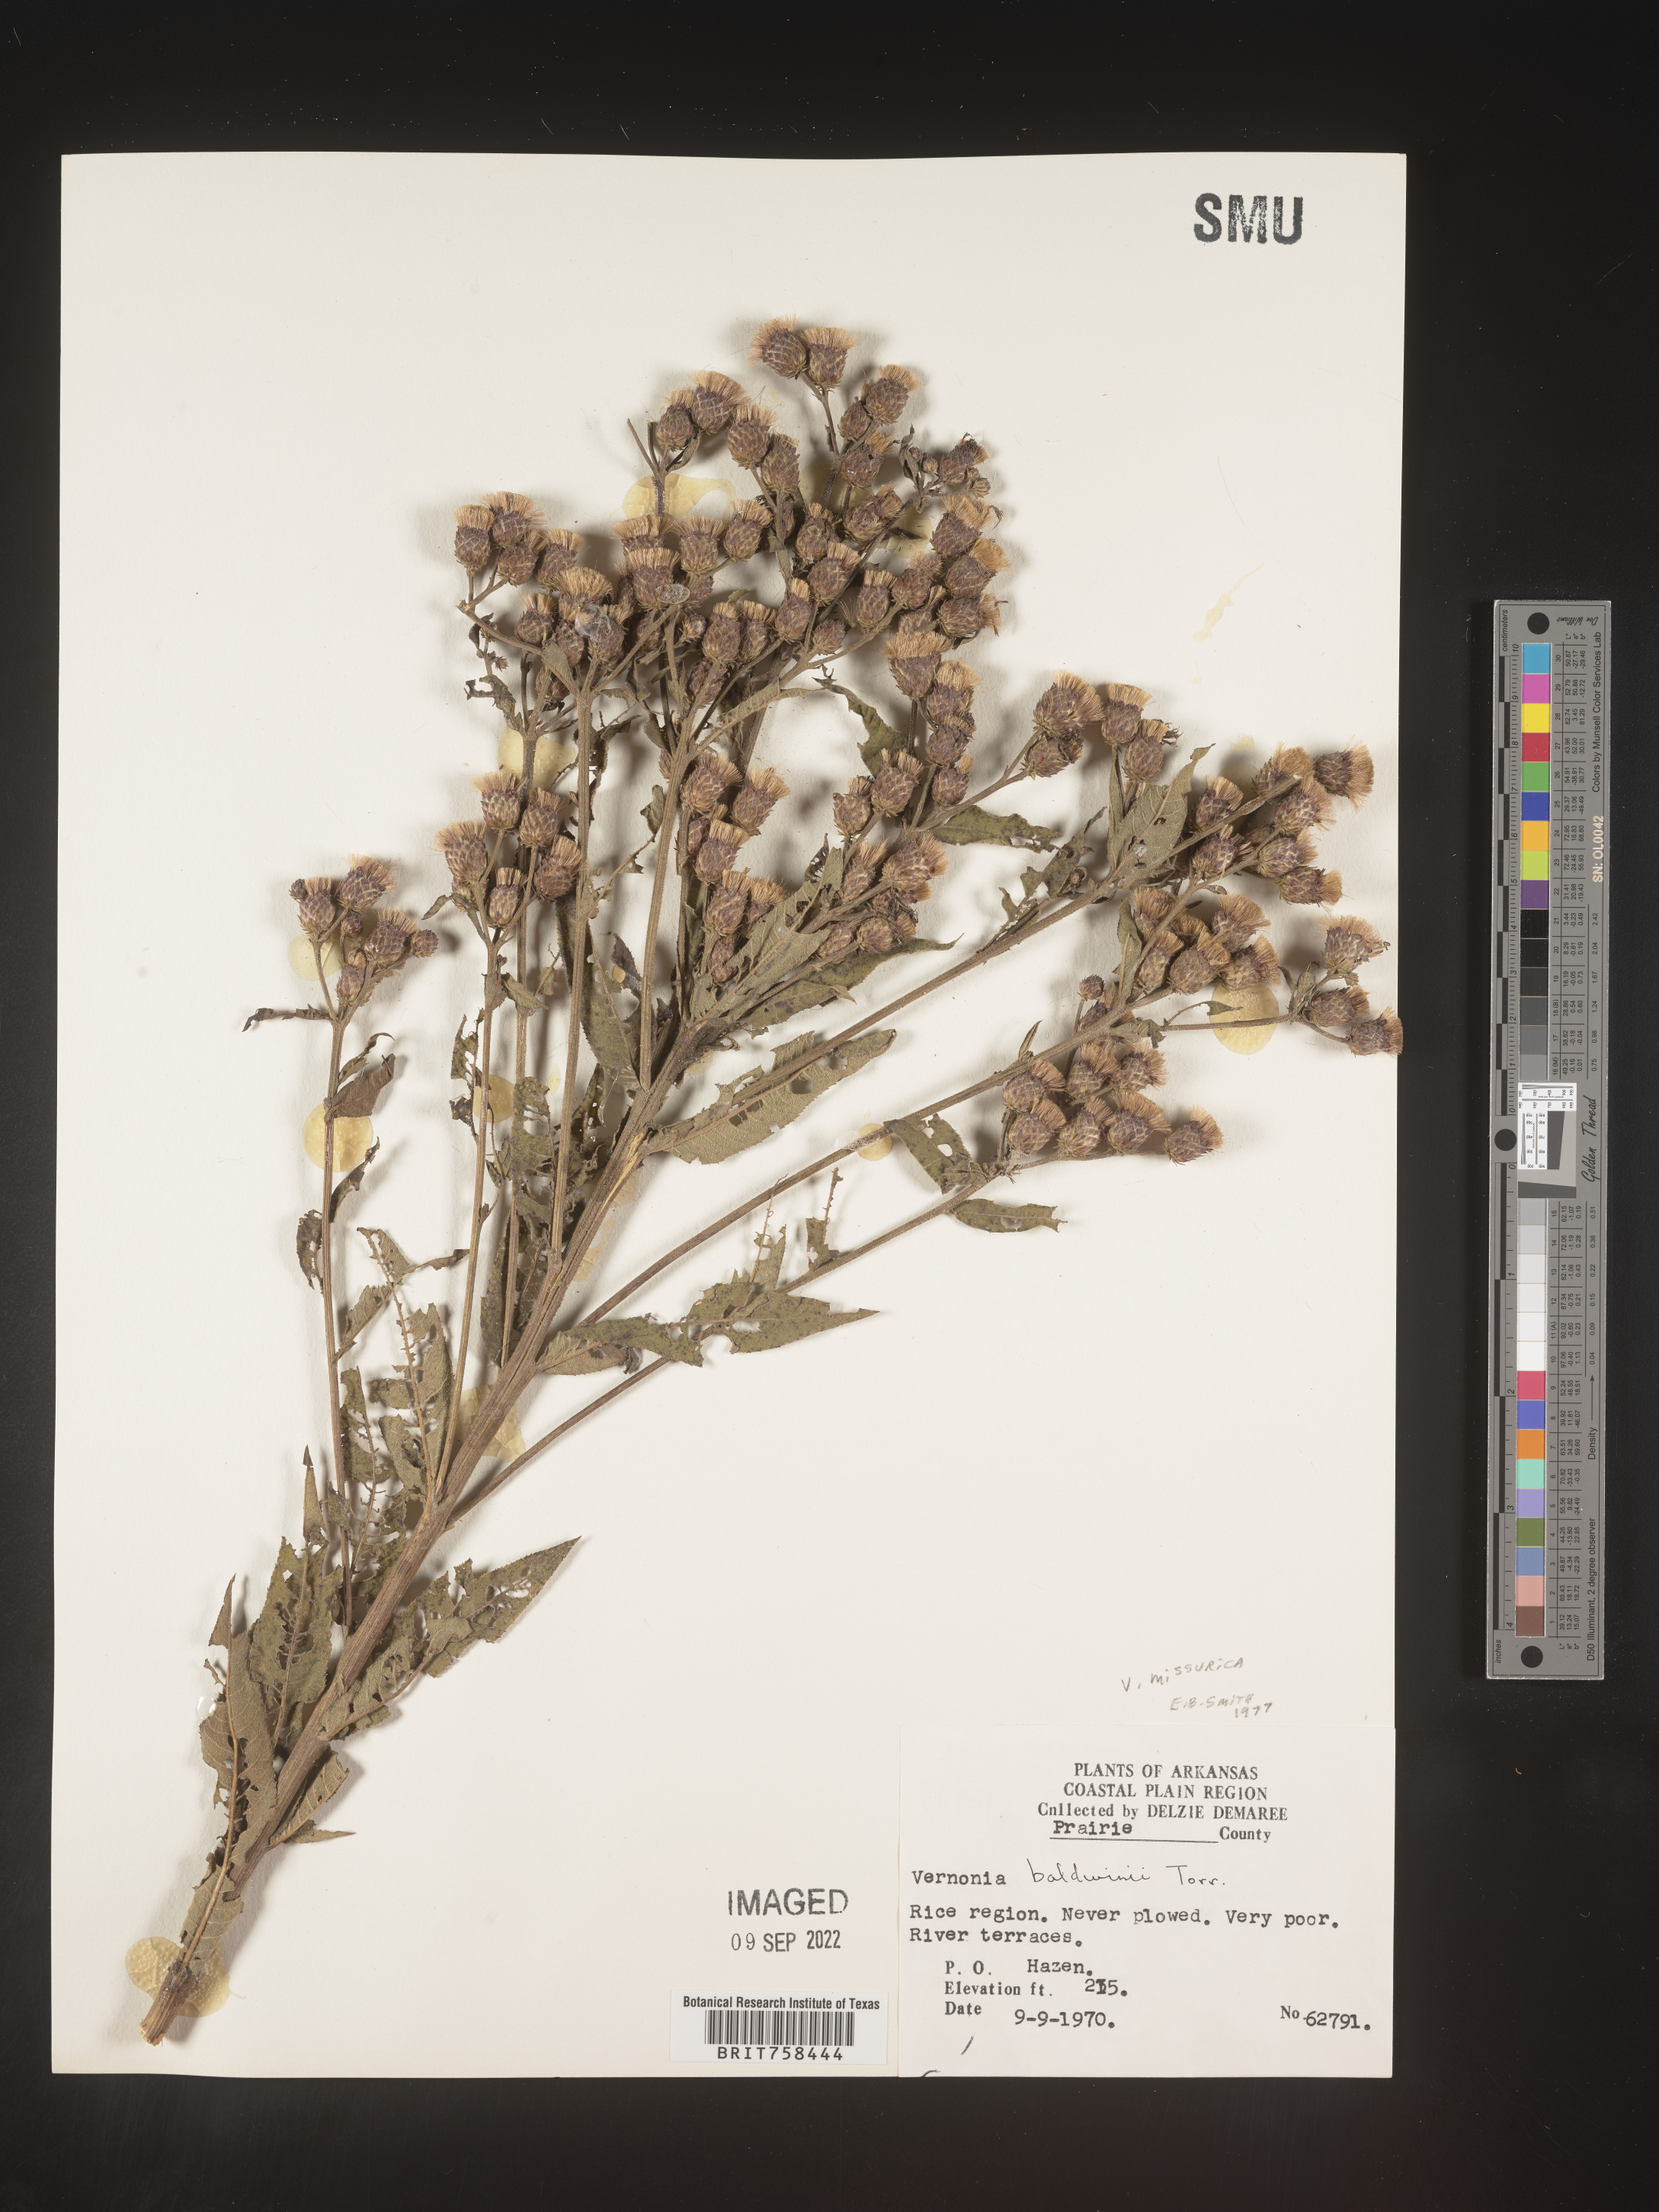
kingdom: Plantae
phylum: Tracheophyta
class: Magnoliopsida
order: Asterales
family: Asteraceae
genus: Vernonia
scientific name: Vernonia missurica
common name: Missouri ironweed
